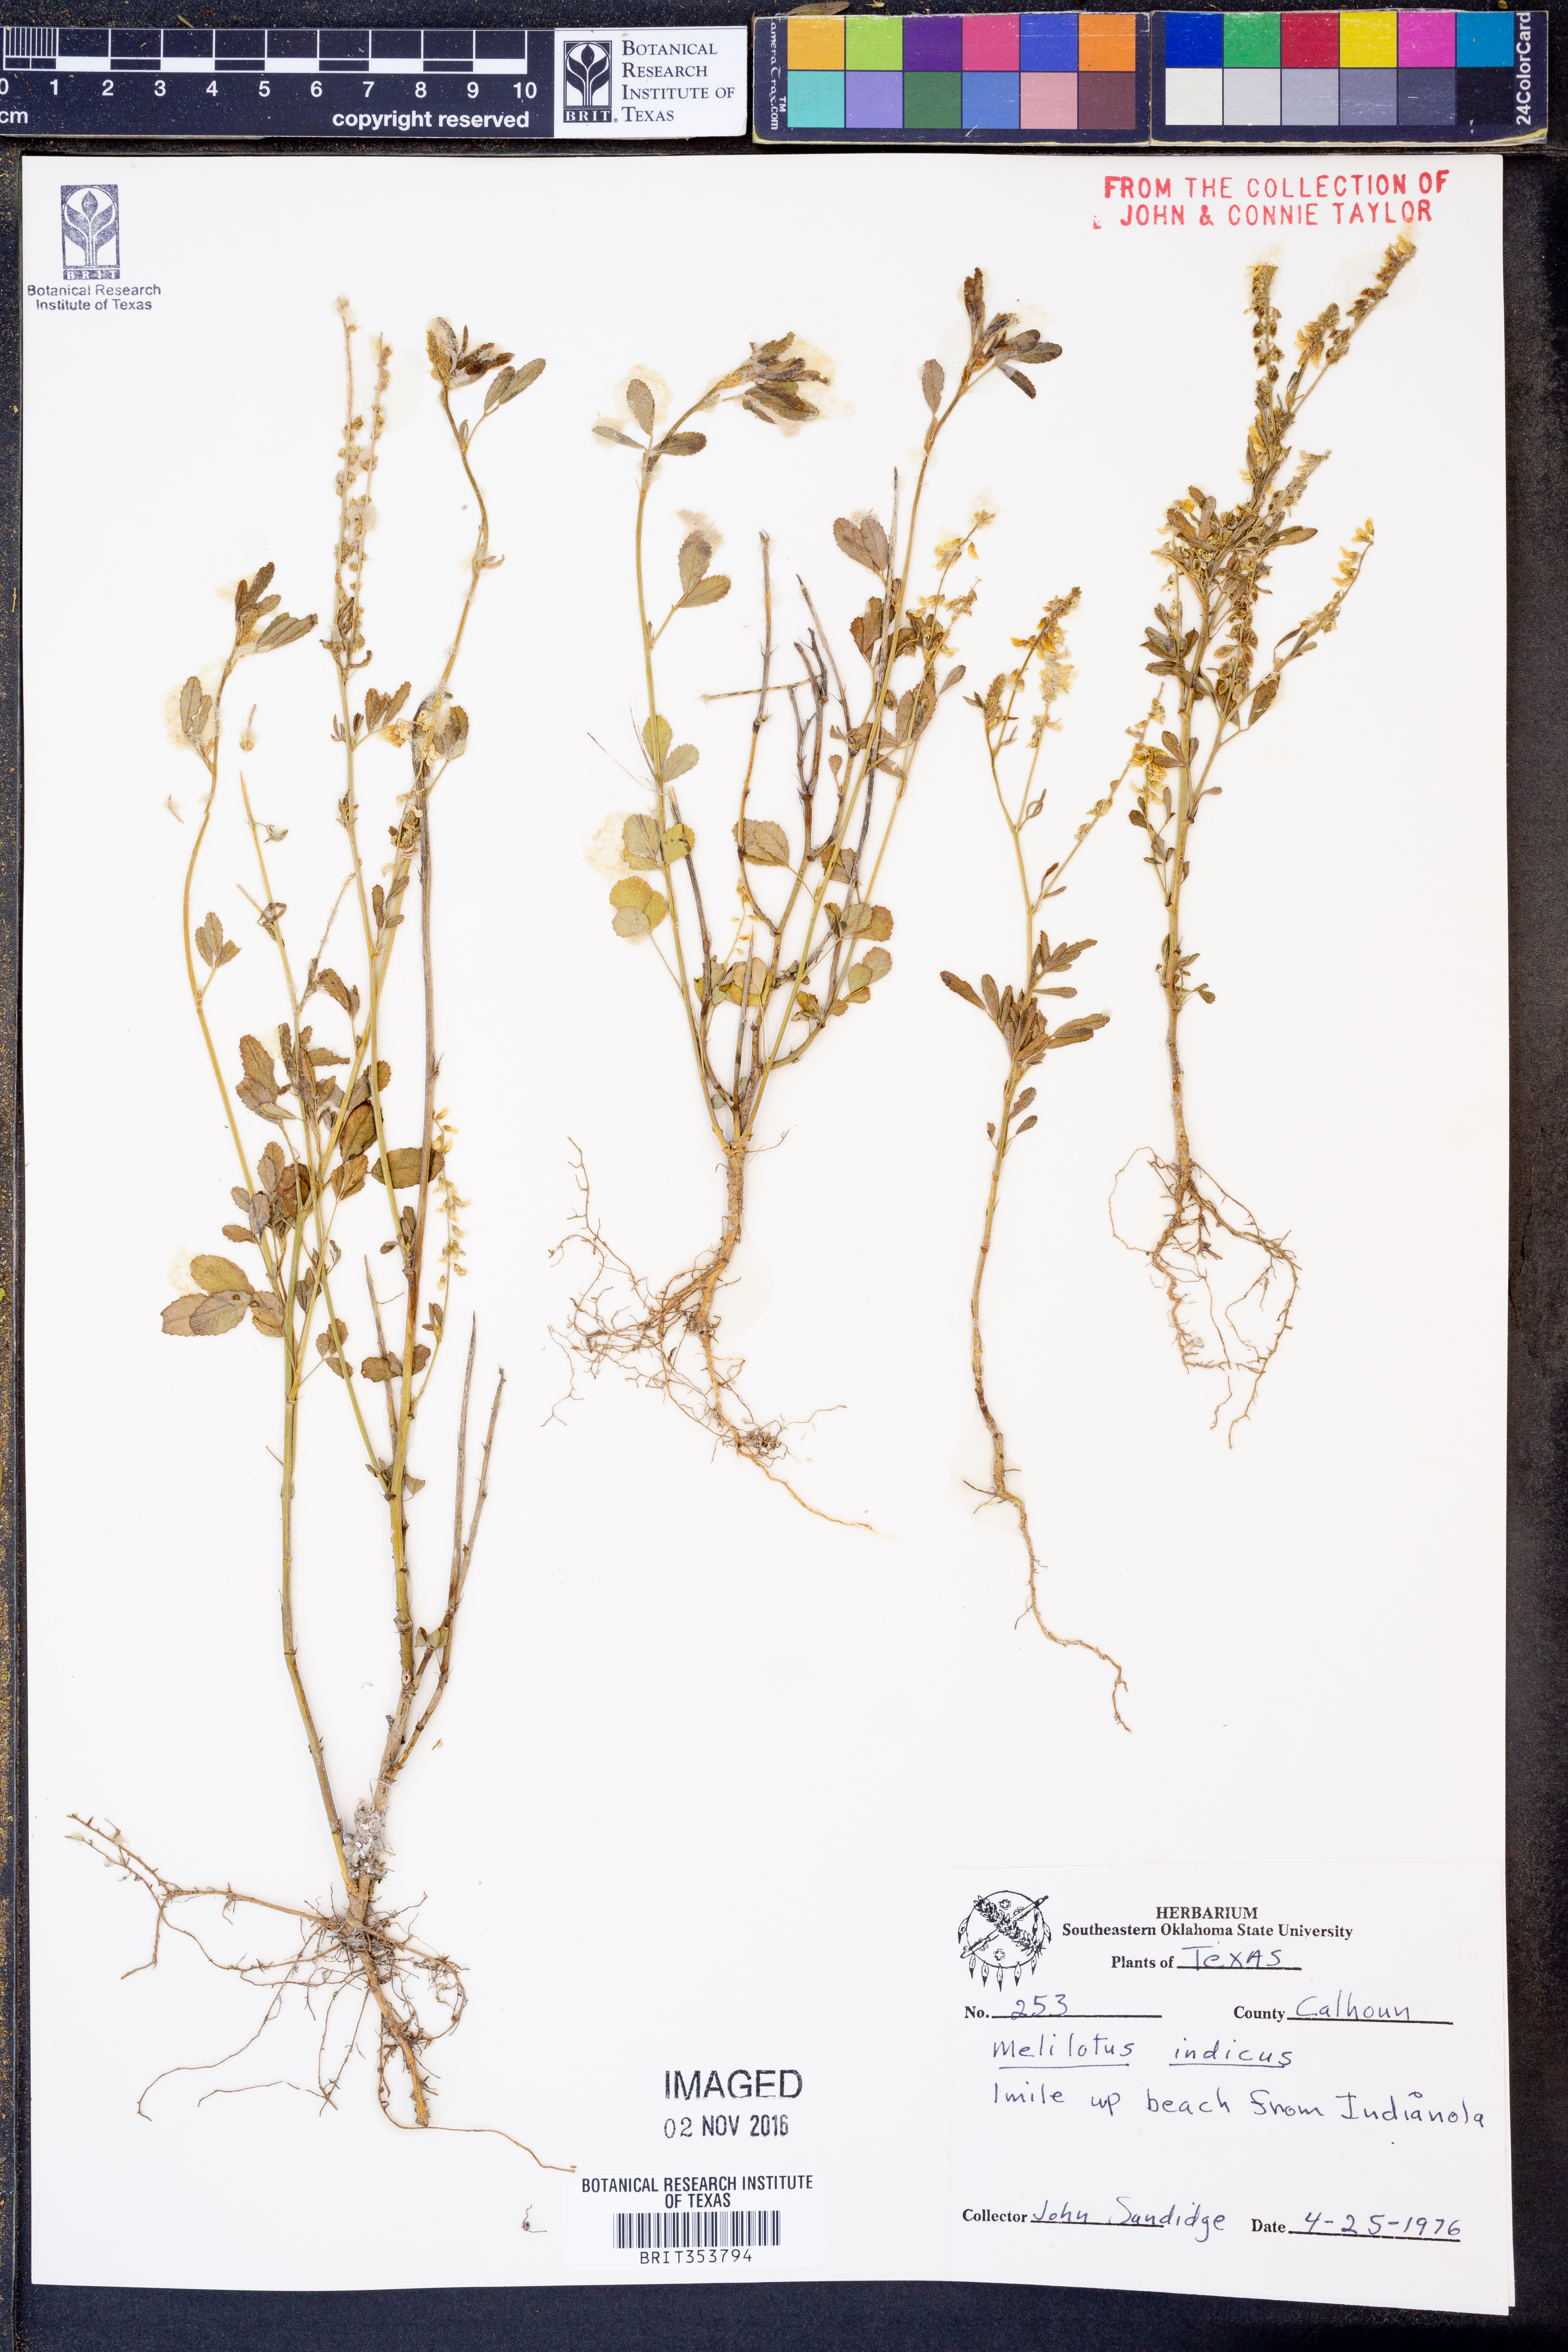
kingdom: Plantae
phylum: Tracheophyta
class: Magnoliopsida
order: Fabales
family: Fabaceae
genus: Melilotus
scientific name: Melilotus indicus
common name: Small melilot
